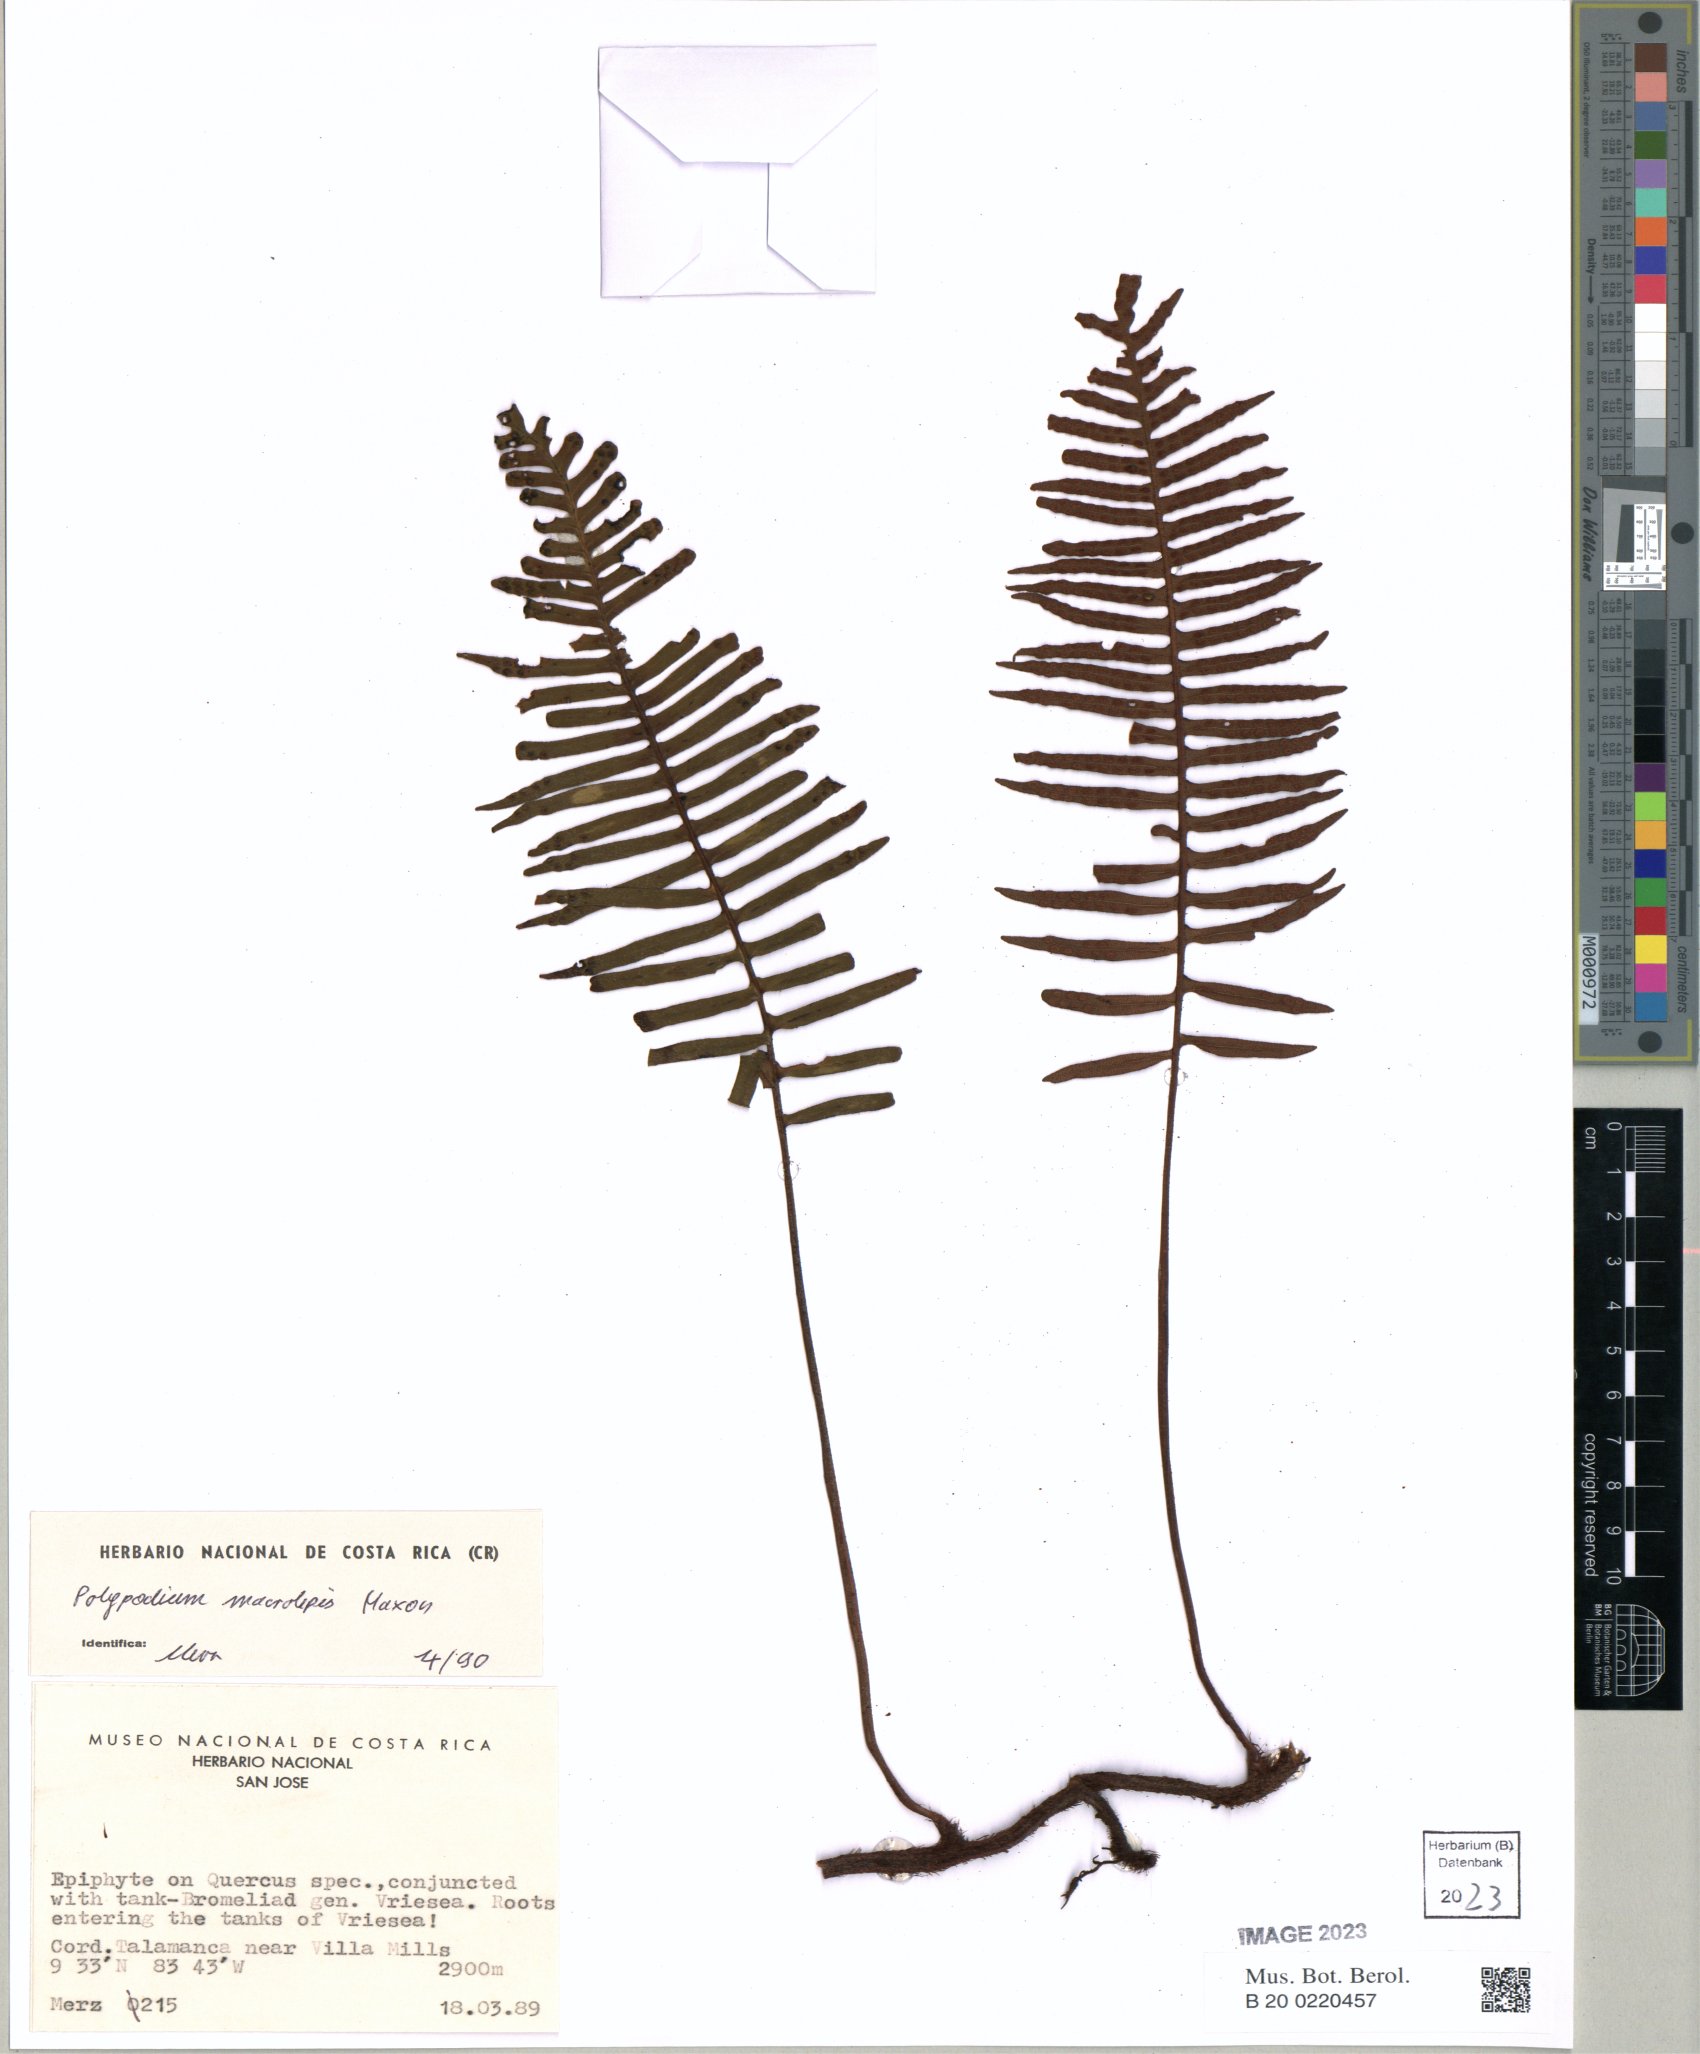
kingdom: Plantae
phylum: Tracheophyta
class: Polypodiopsida
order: Polypodiales
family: Polypodiaceae
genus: Pleopeltis
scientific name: Pleopeltis macrolepis
